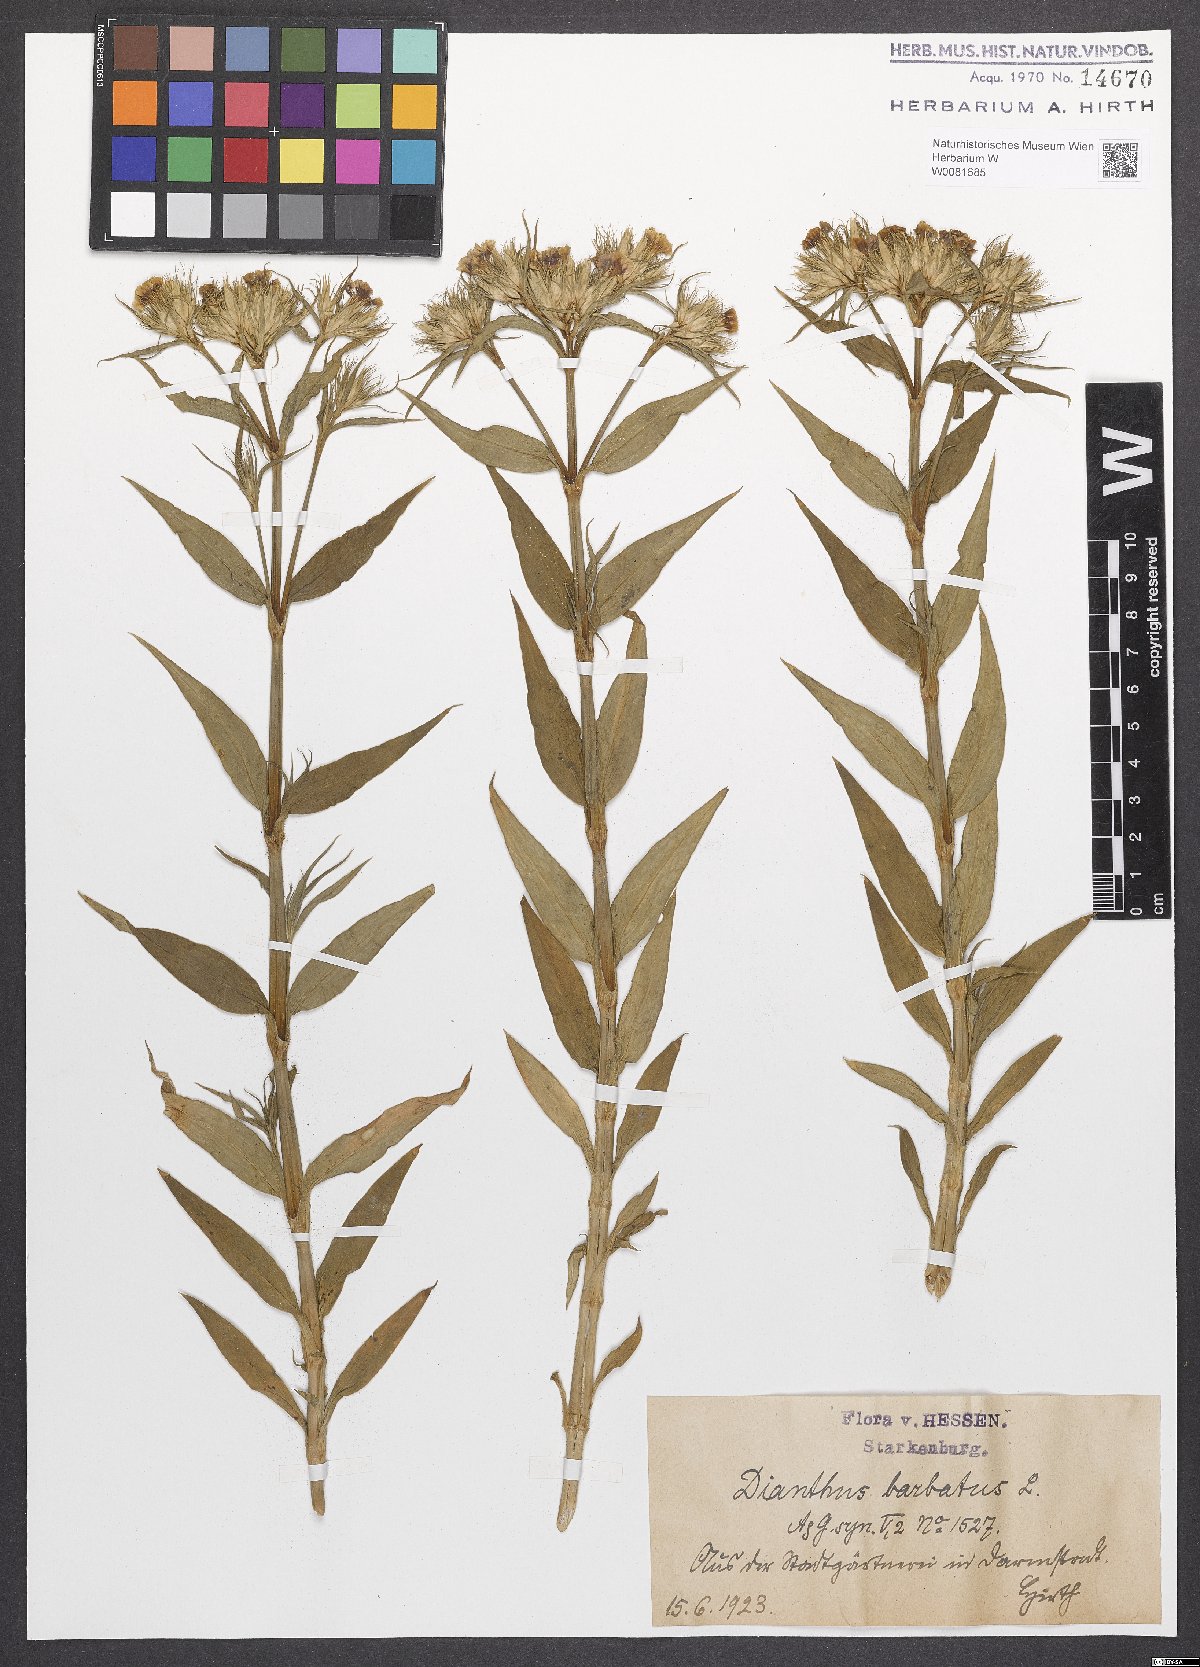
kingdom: Plantae
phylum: Tracheophyta
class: Magnoliopsida
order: Caryophyllales
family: Caryophyllaceae
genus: Dianthus
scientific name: Dianthus barbatus
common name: Sweet-william
